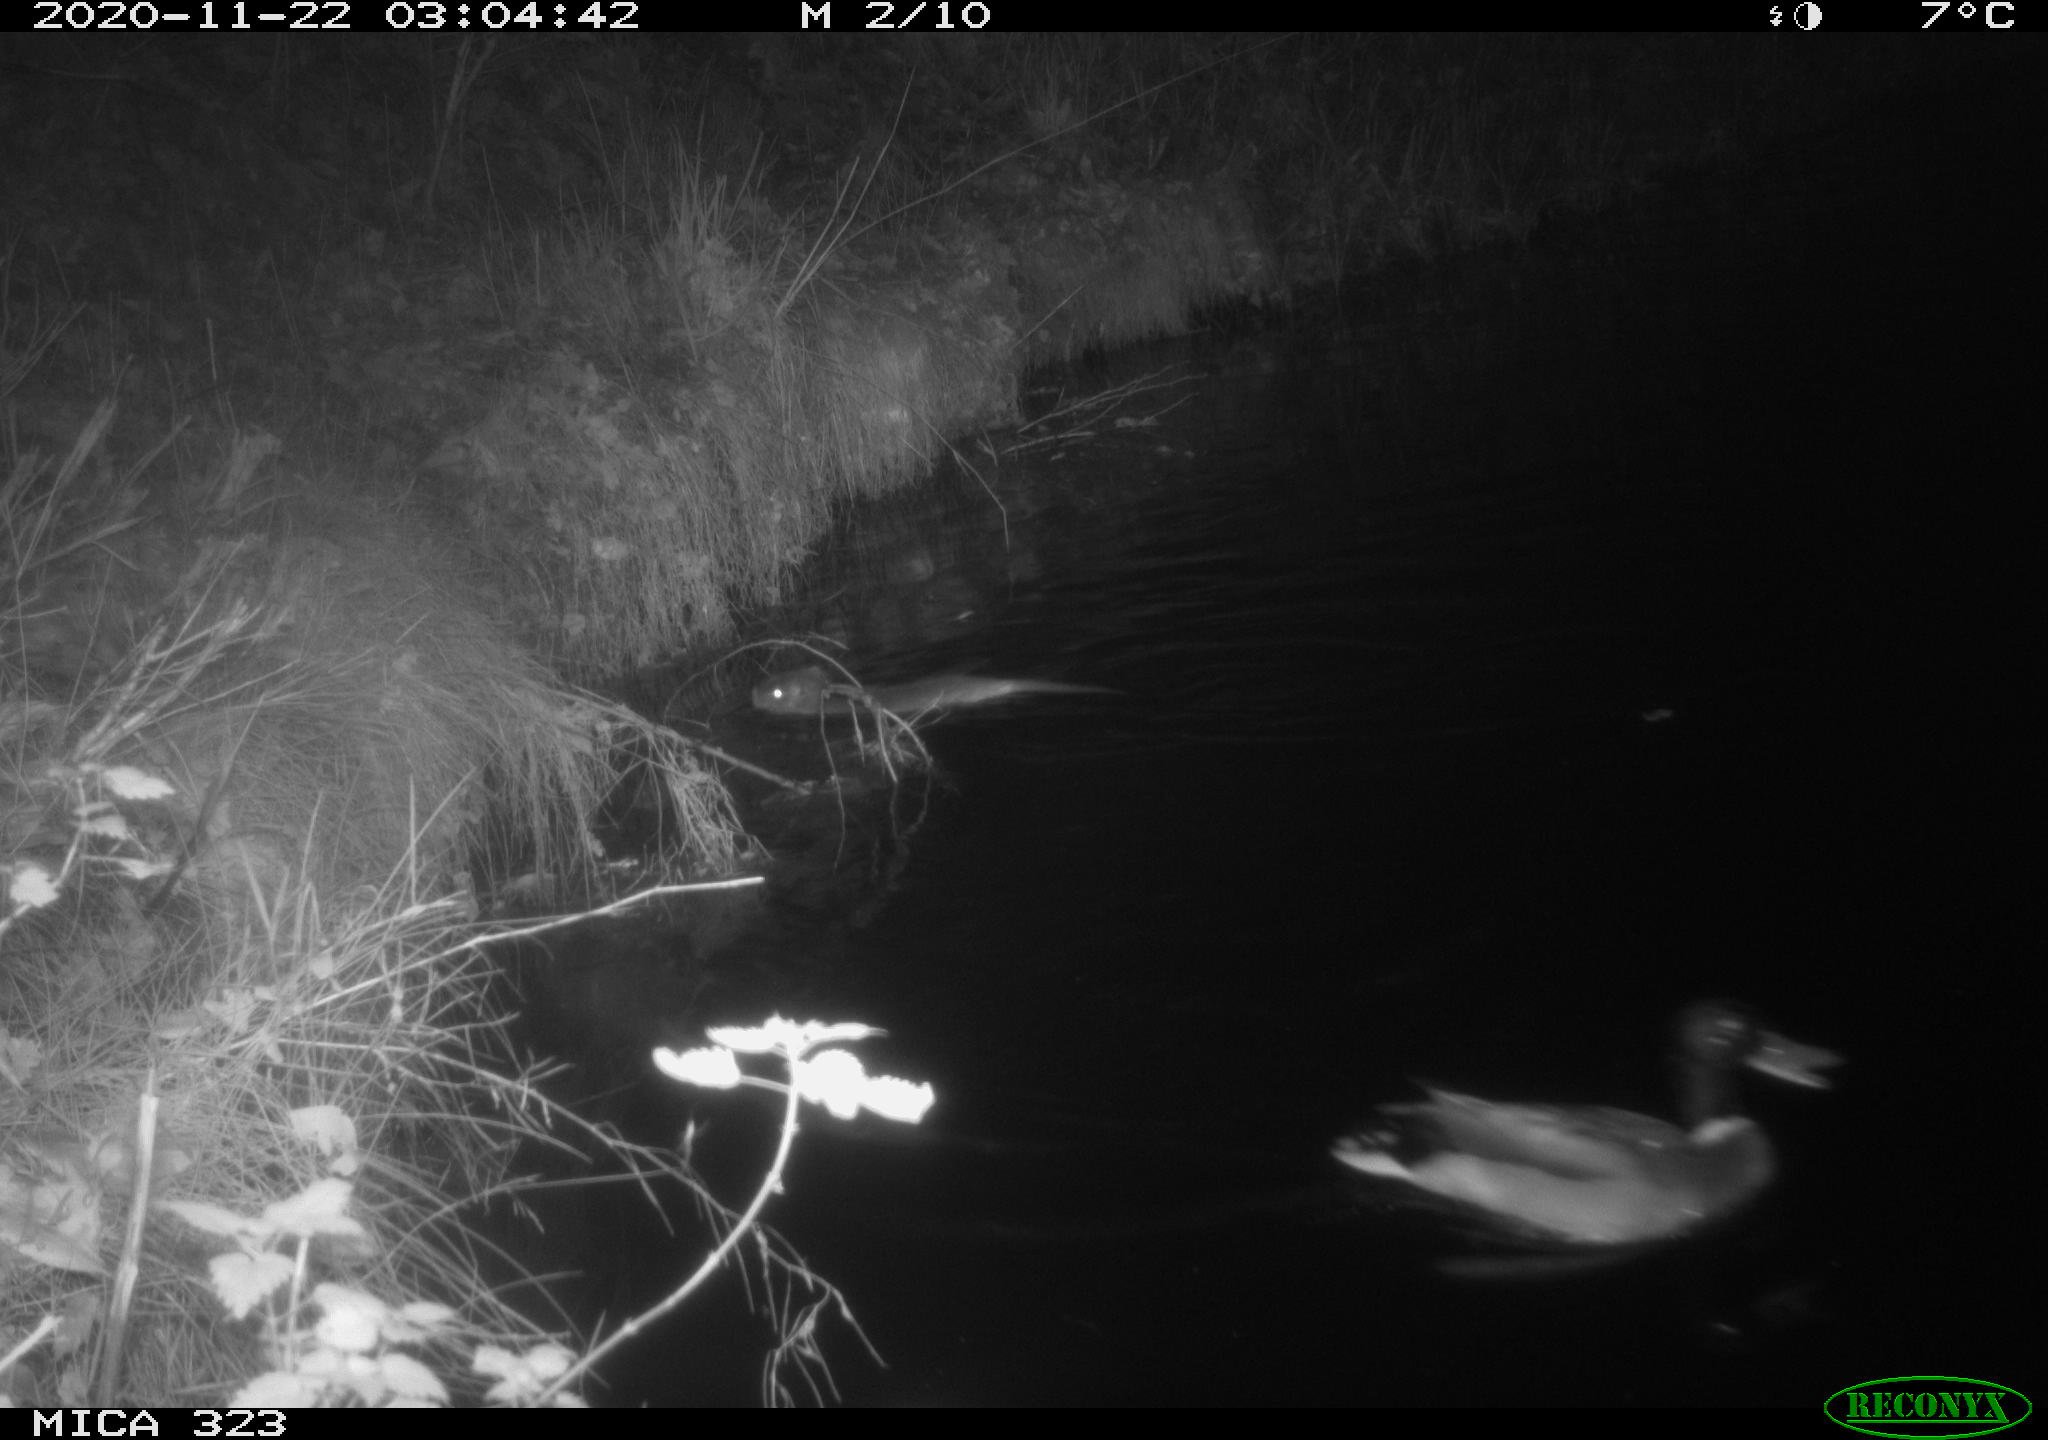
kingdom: Animalia
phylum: Chordata
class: Mammalia
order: Rodentia
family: Myocastoridae
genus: Myocastor
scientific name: Myocastor coypus
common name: Coypu
